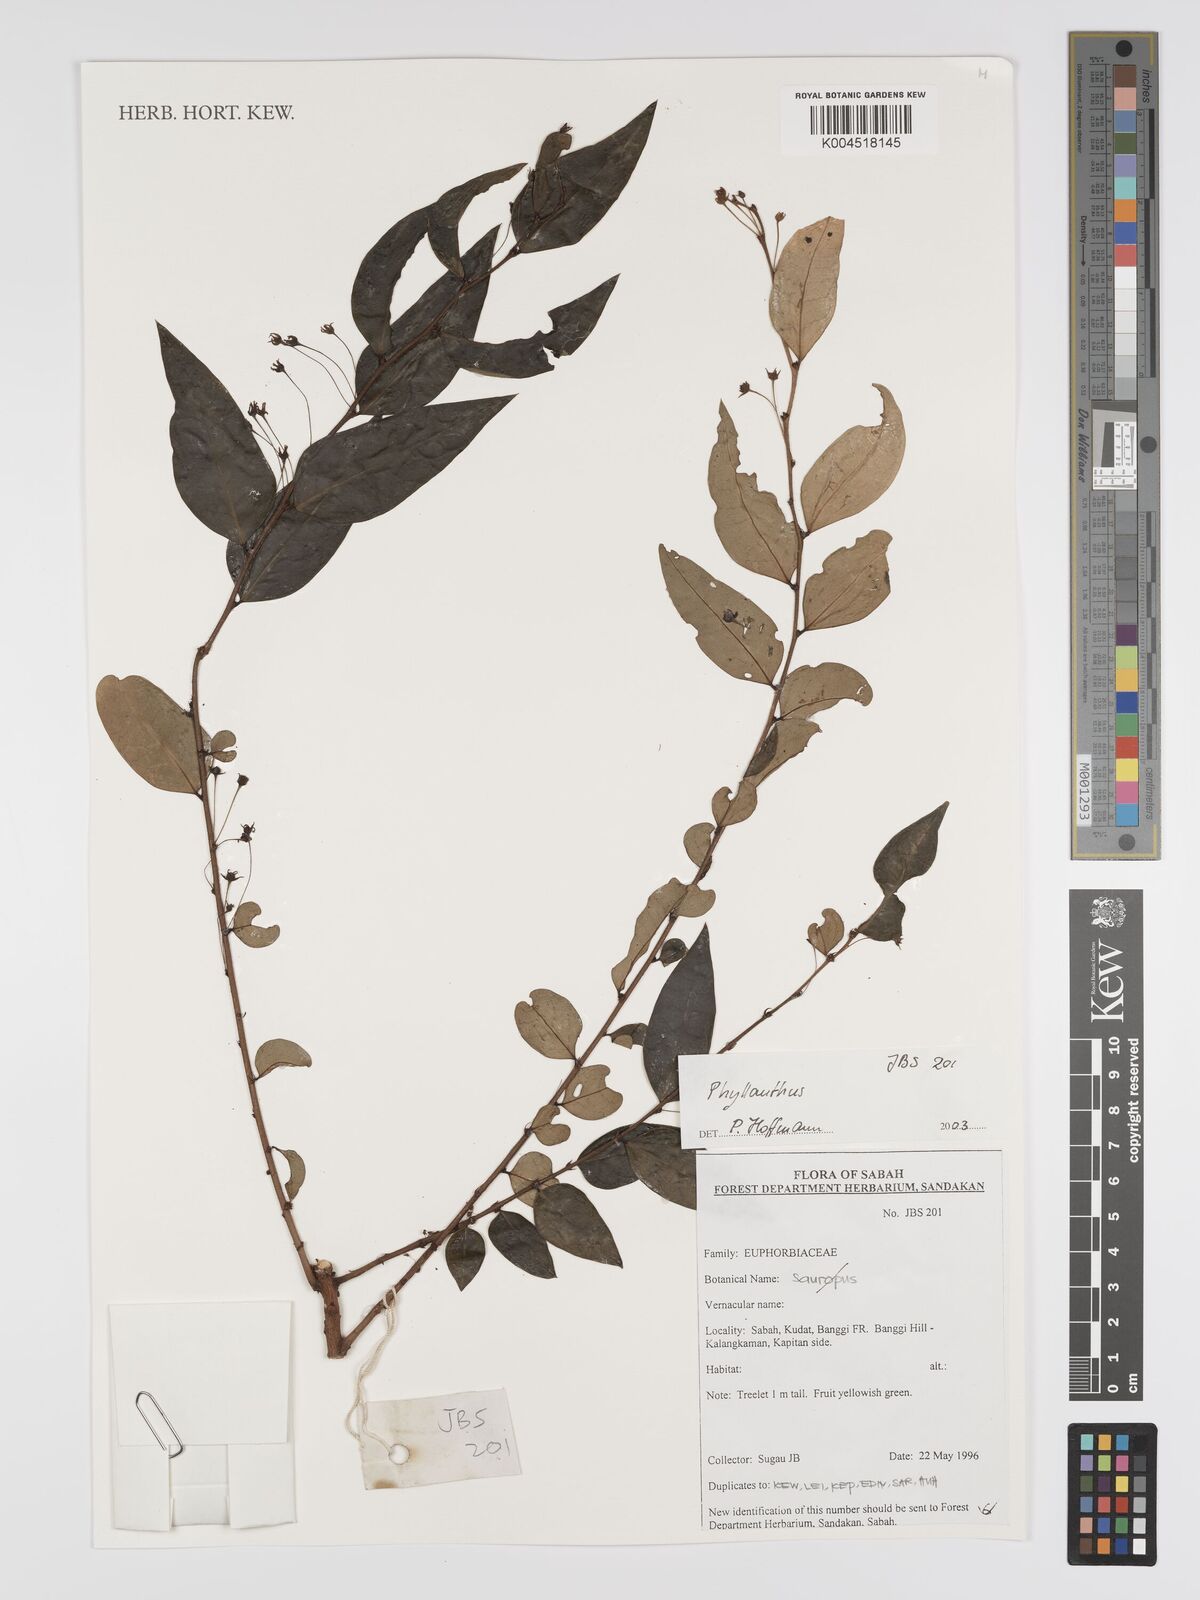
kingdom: Plantae
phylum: Tracheophyta
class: Magnoliopsida
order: Malpighiales
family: Phyllanthaceae
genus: Phyllanthus
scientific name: Phyllanthus
